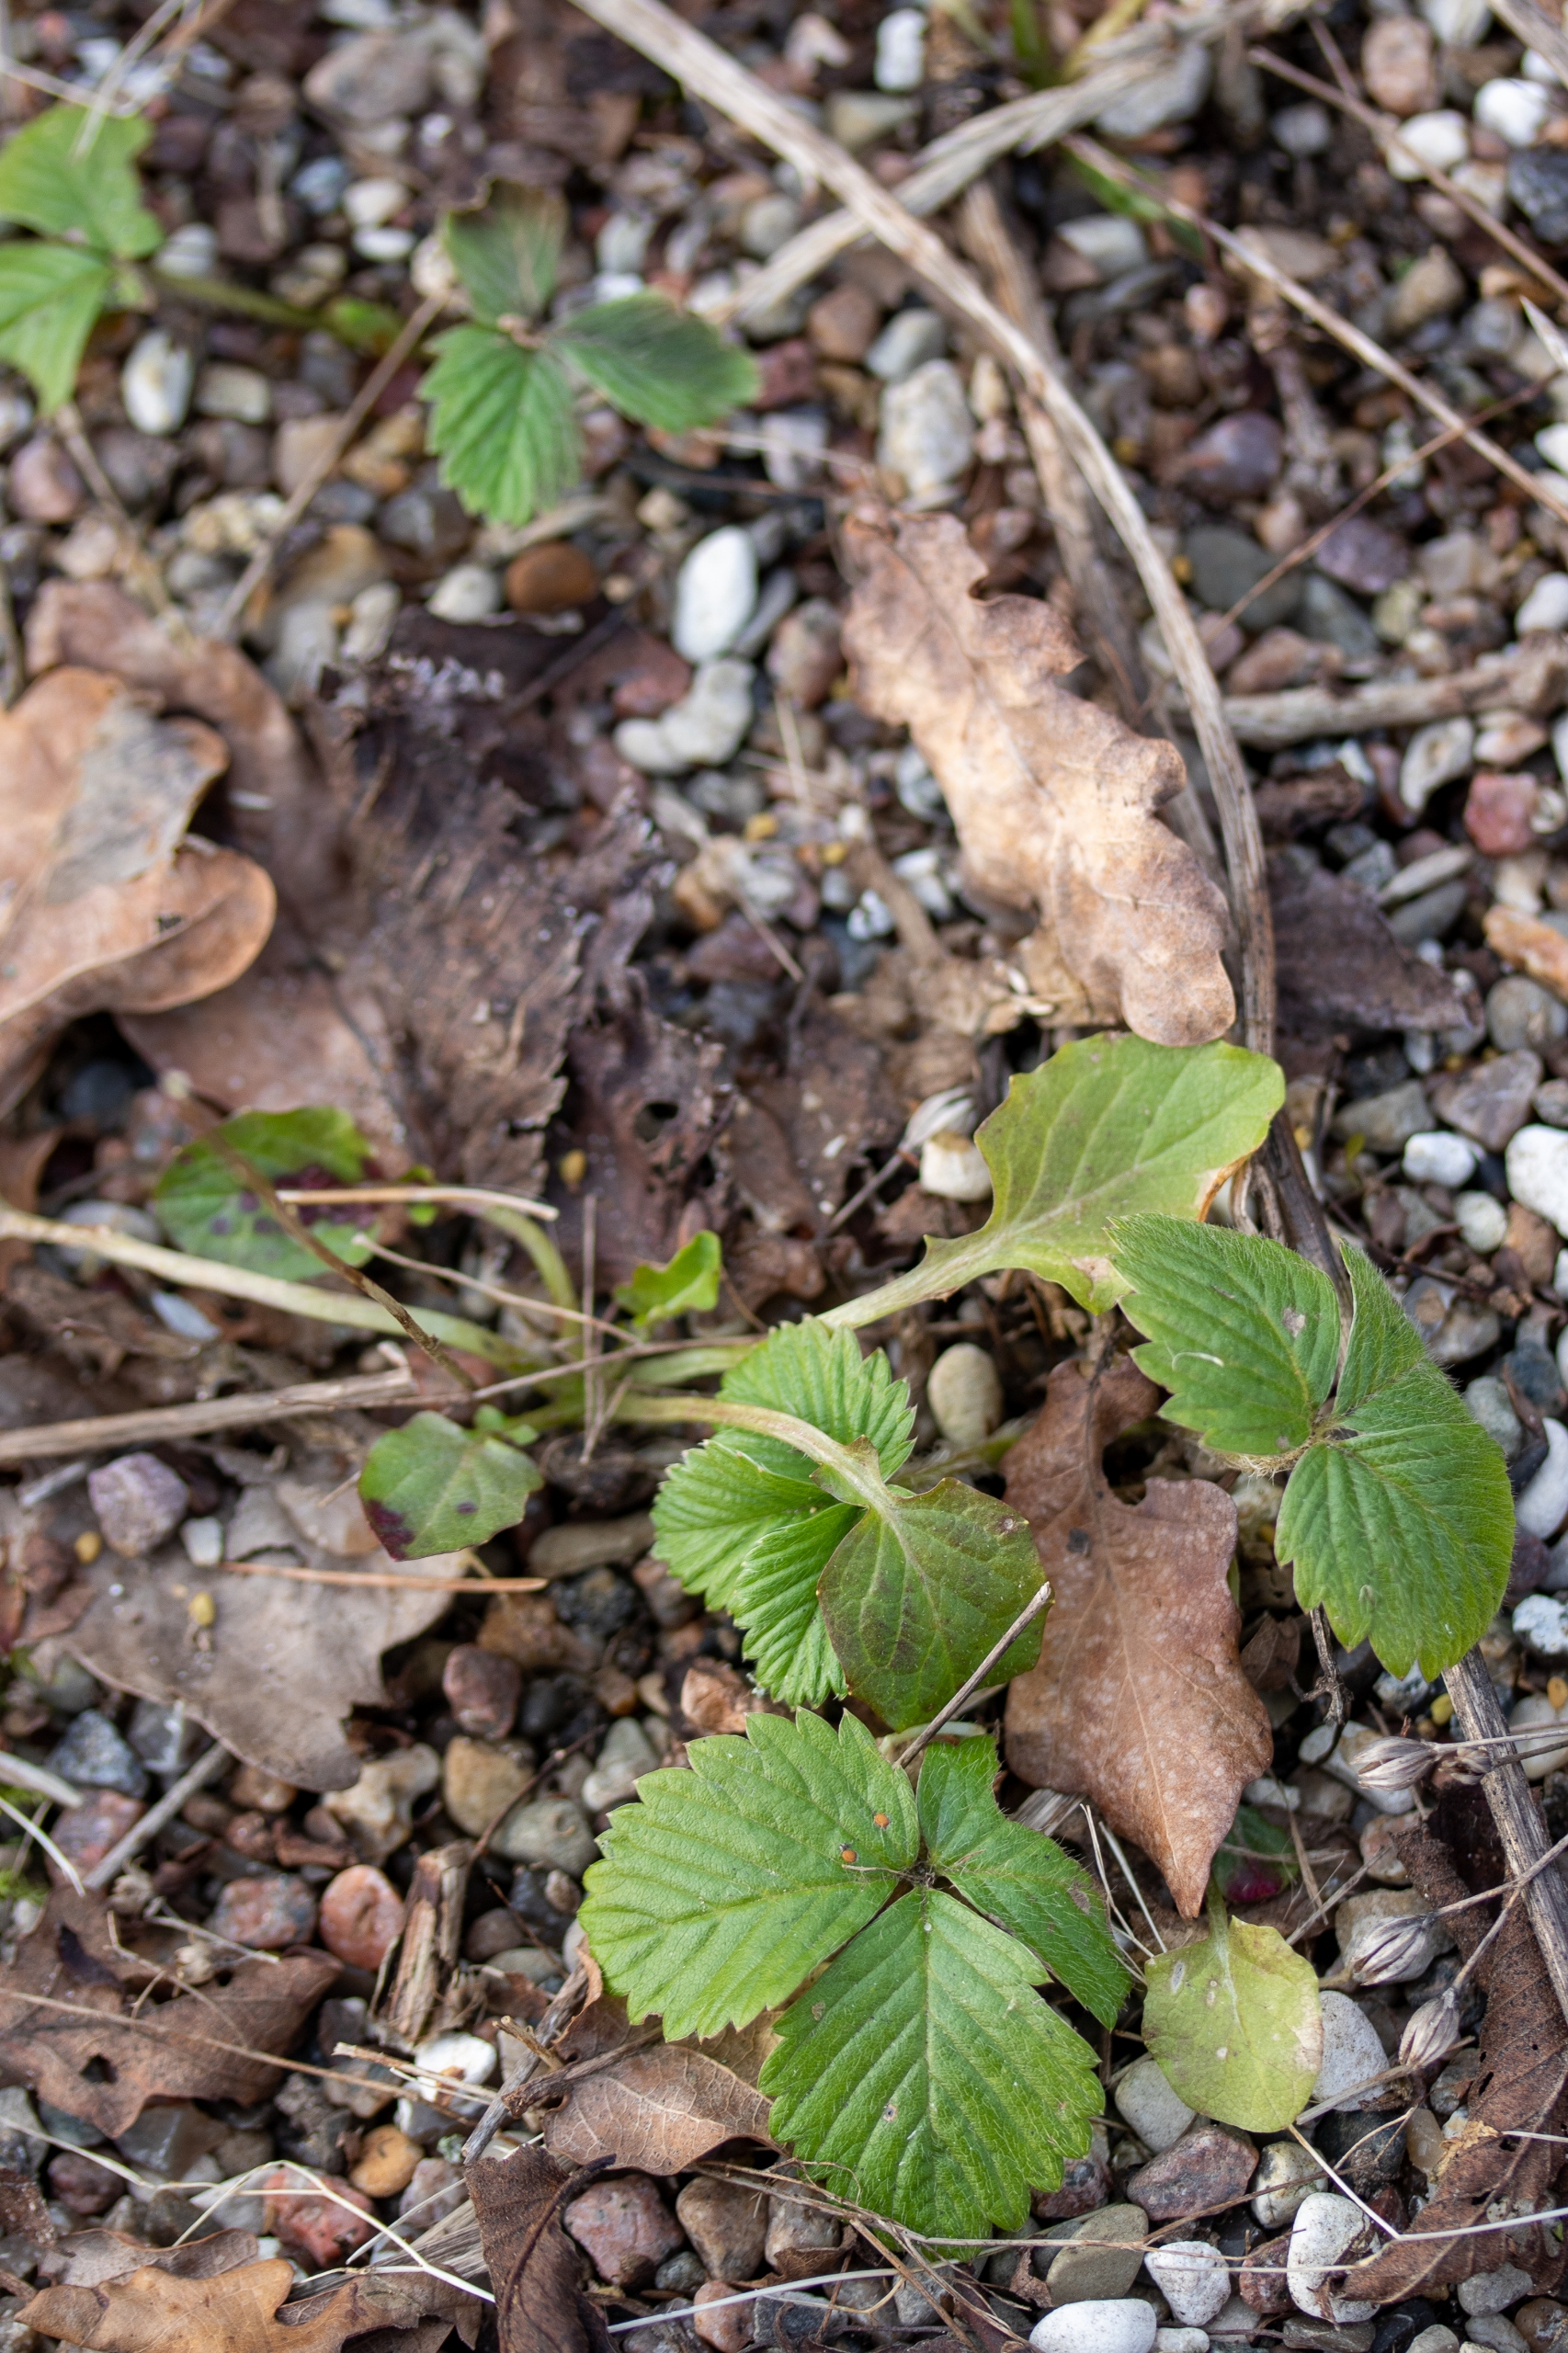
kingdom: Plantae
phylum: Tracheophyta
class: Magnoliopsida
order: Rosales
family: Rosaceae
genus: Fragaria
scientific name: Fragaria
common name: Jordbærslægten
